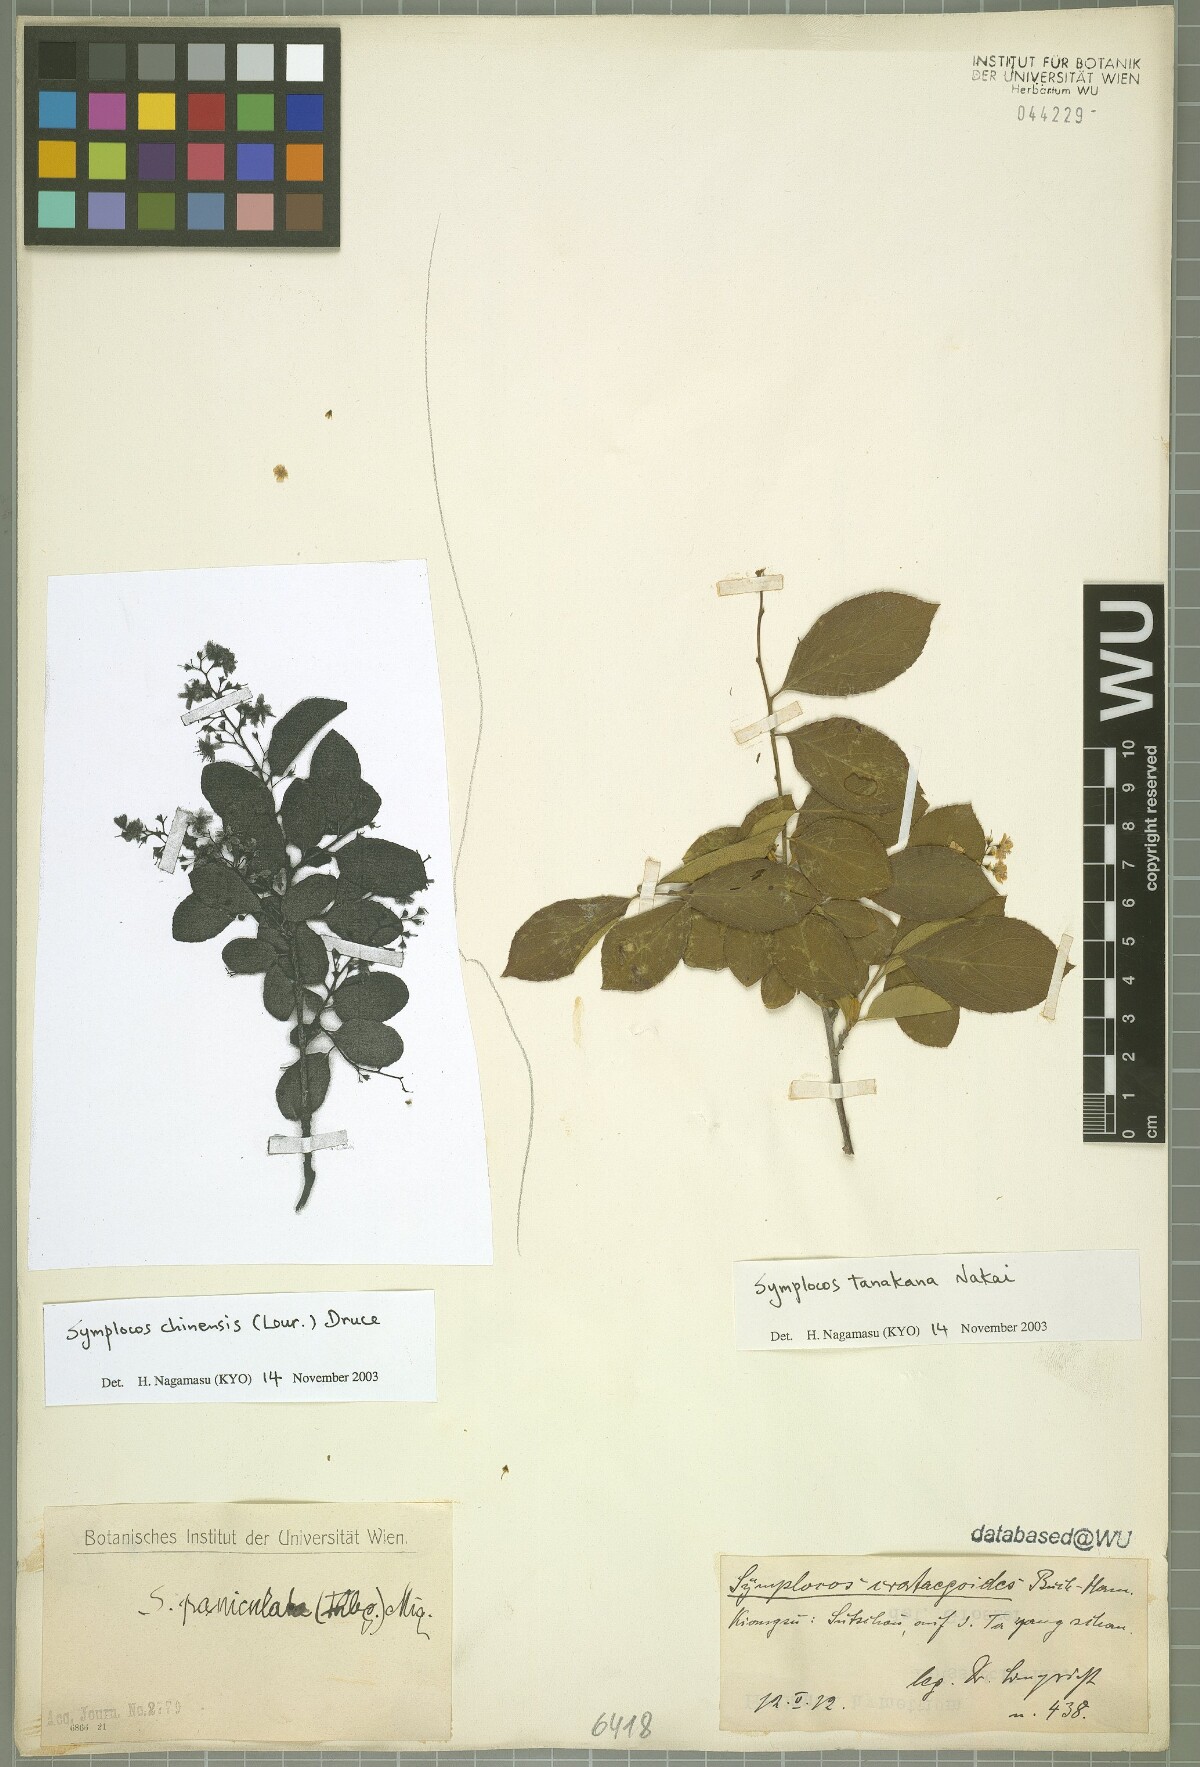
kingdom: Plantae
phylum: Tracheophyta
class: Magnoliopsida
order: Ericales
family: Symplocaceae
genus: Symplocos
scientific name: Symplocos tanakana
